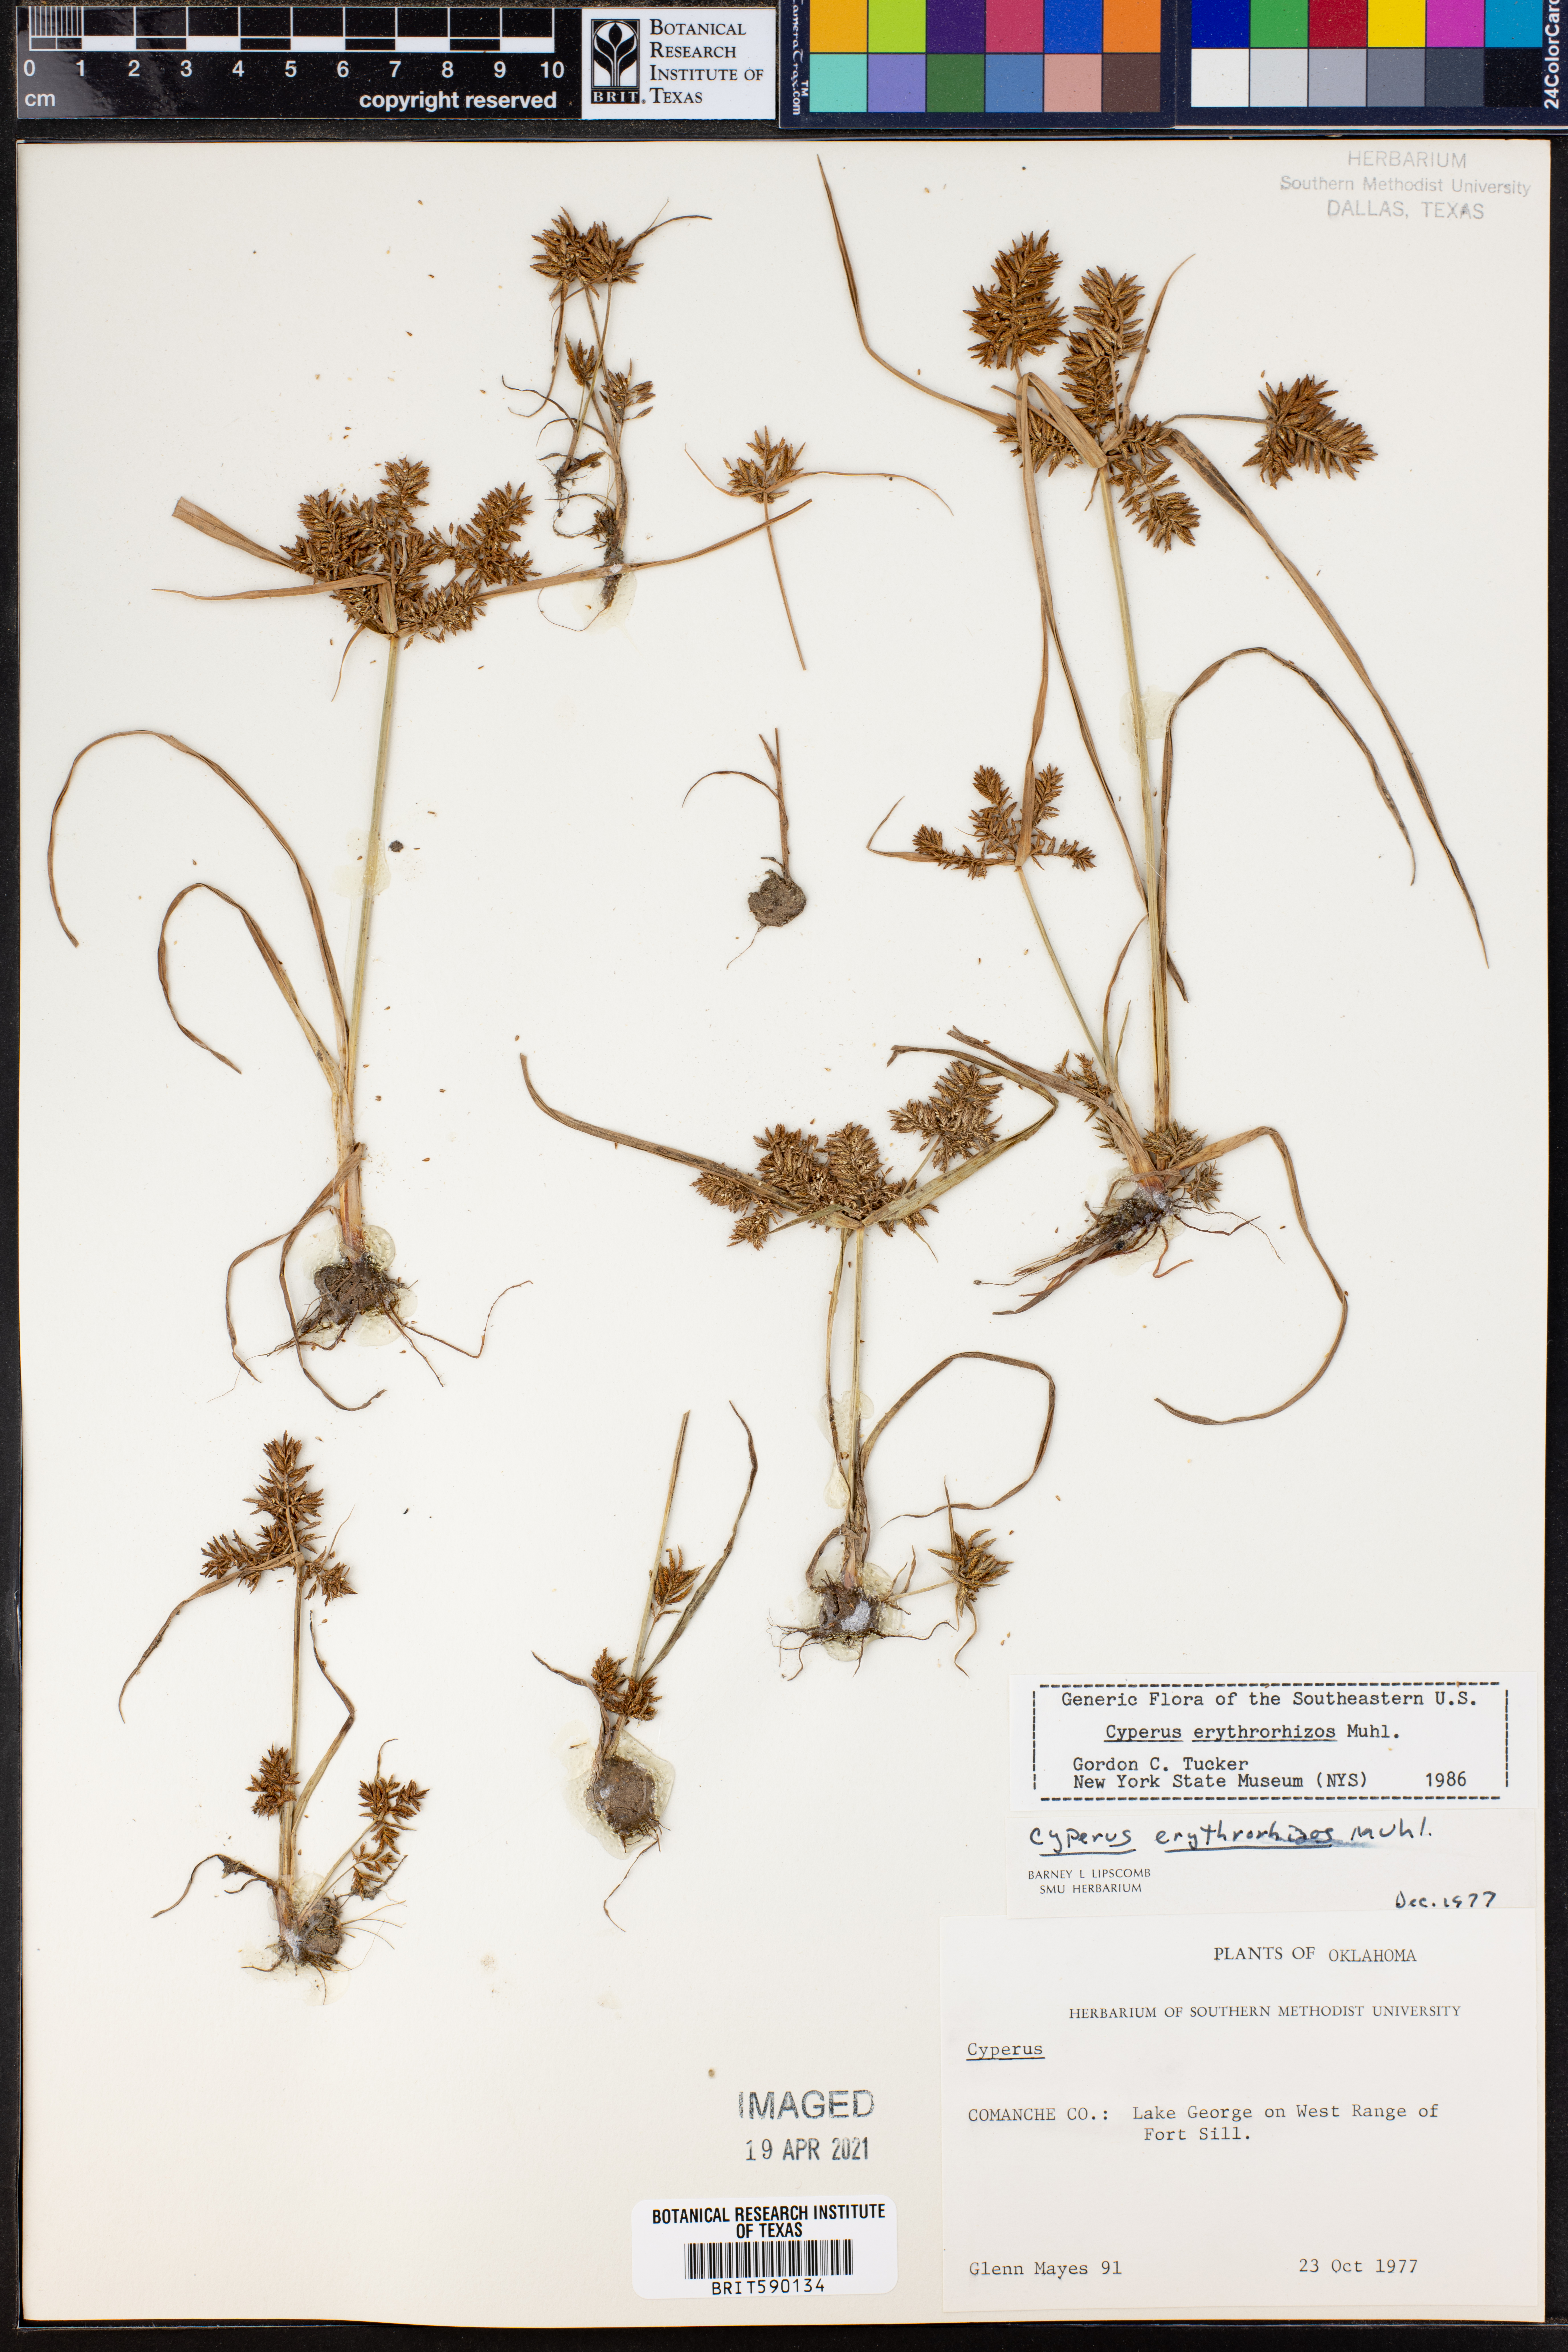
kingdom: Plantae
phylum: Tracheophyta
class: Liliopsida
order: Poales
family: Cyperaceae
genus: Cyperus
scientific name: Cyperus erythrorhizos
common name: Red-root flat sedge
